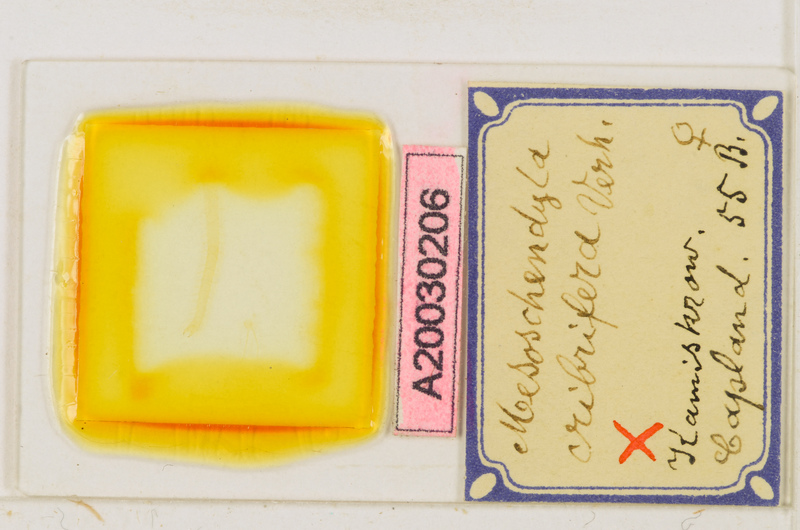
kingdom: Animalia
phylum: Arthropoda
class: Chilopoda
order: Geophilomorpha
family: Schendylidae
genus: Mesoschendyla
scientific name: Mesoschendyla cribrifera
